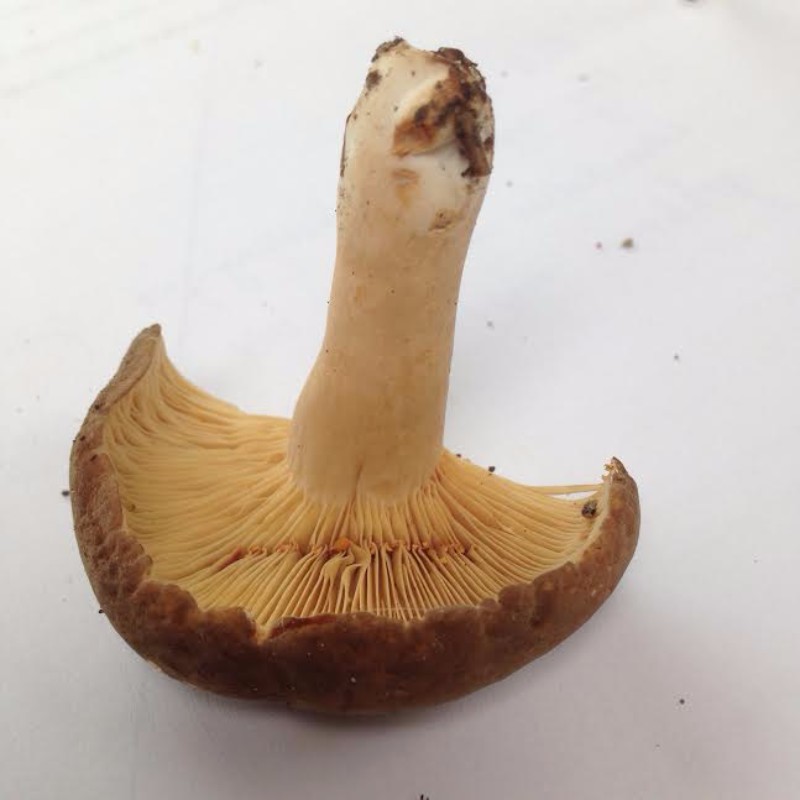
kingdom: Fungi
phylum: Basidiomycota
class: Agaricomycetes
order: Russulales
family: Russulaceae
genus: Lactarius
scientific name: Lactarius
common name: mælkehat
